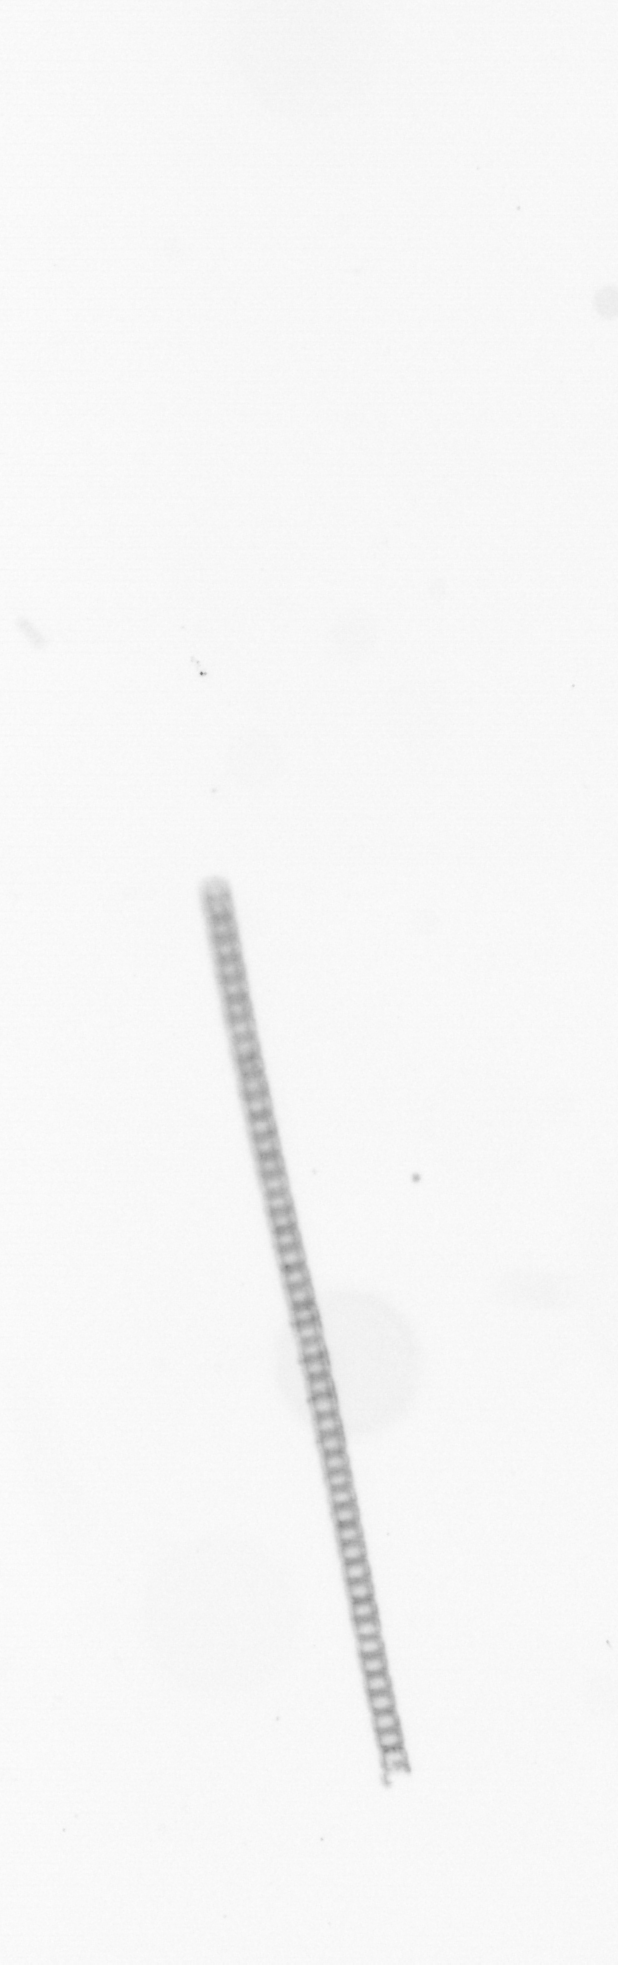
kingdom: Chromista
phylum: Ochrophyta
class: Bacillariophyceae
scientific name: Bacillariophyceae
